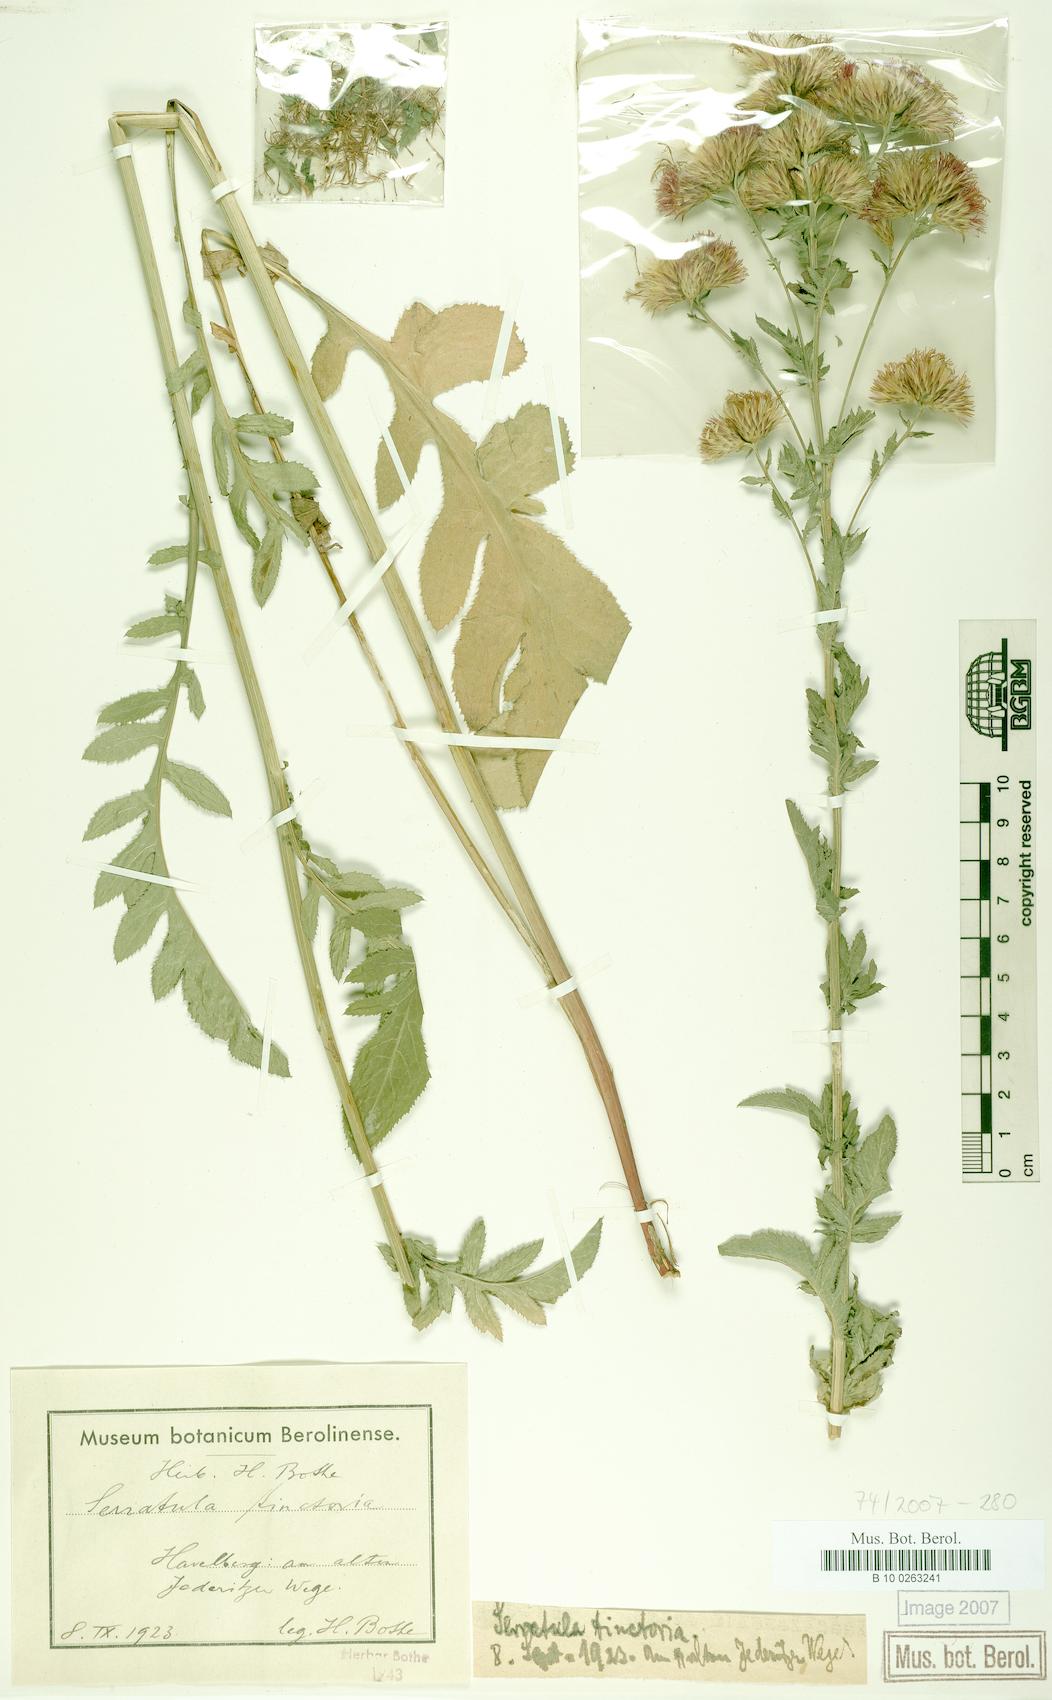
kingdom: Plantae
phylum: Tracheophyta
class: Magnoliopsida
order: Asterales
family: Asteraceae
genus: Serratula
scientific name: Serratula tinctoria
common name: Saw-wort
